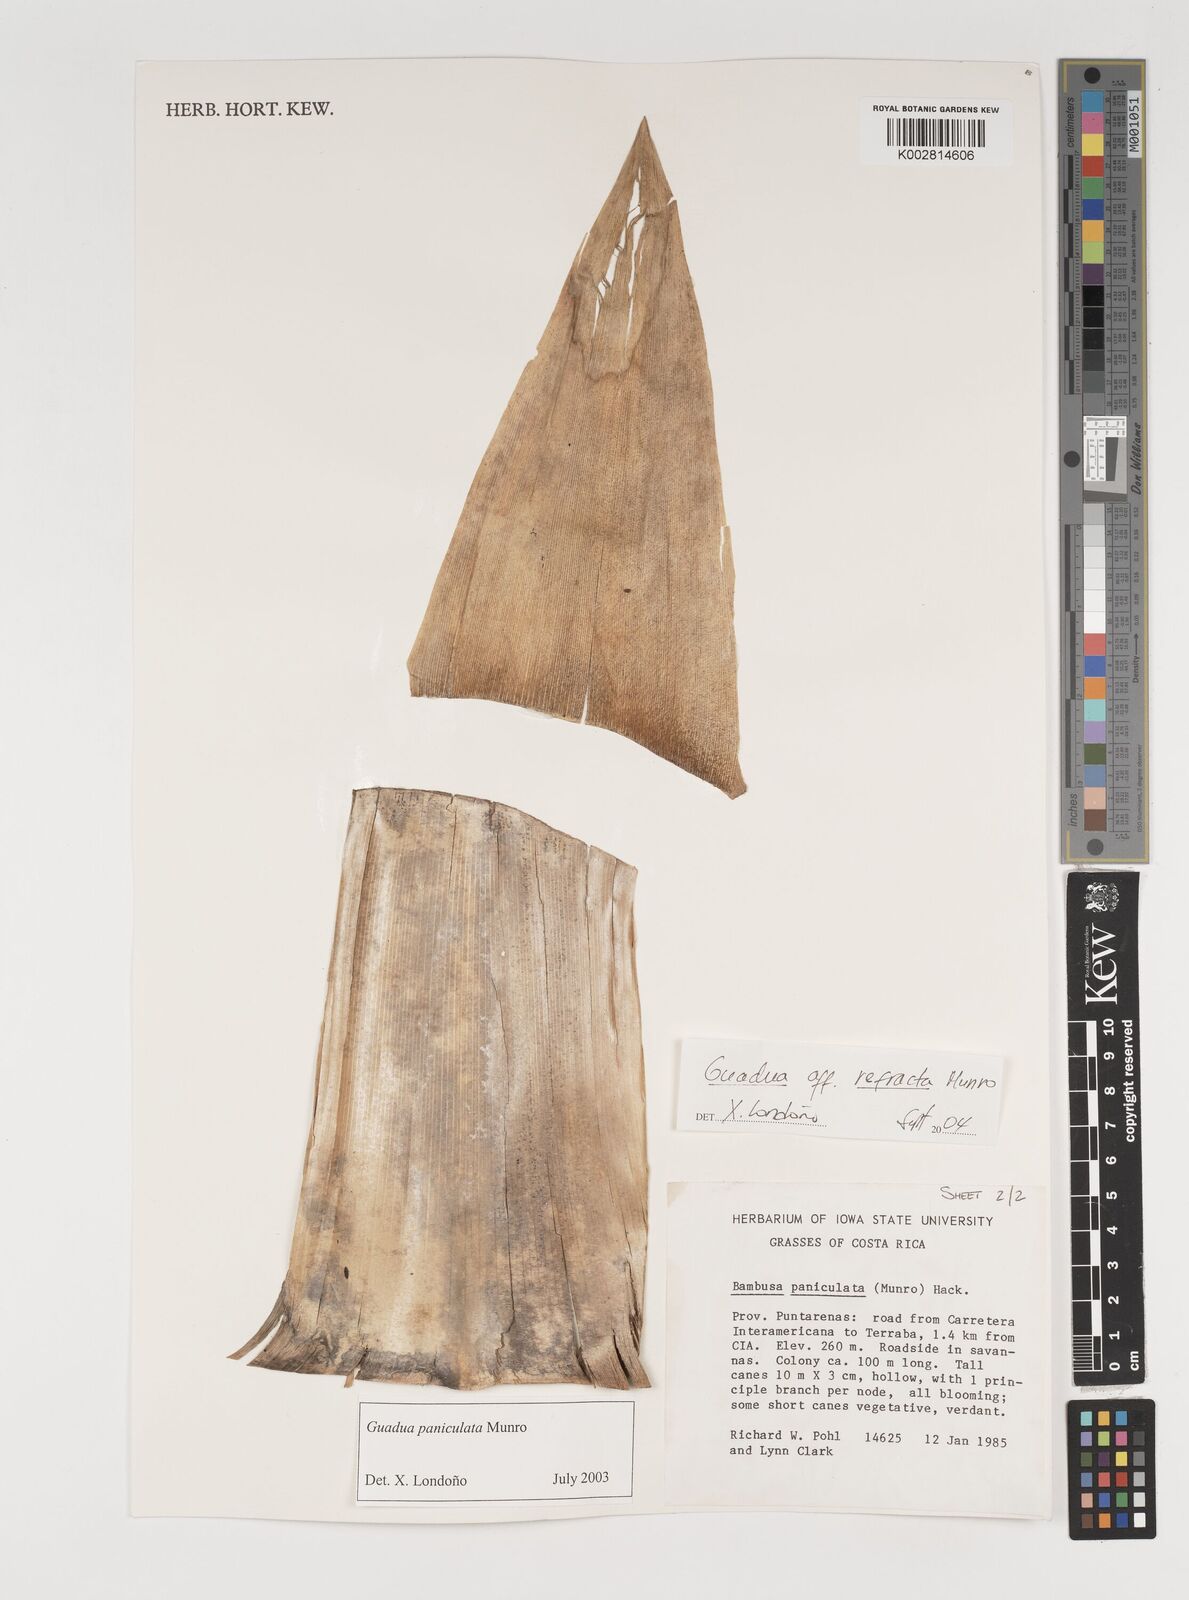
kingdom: Plantae
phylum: Tracheophyta
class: Liliopsida
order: Poales
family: Poaceae
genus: Guadua
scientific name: Guadua
